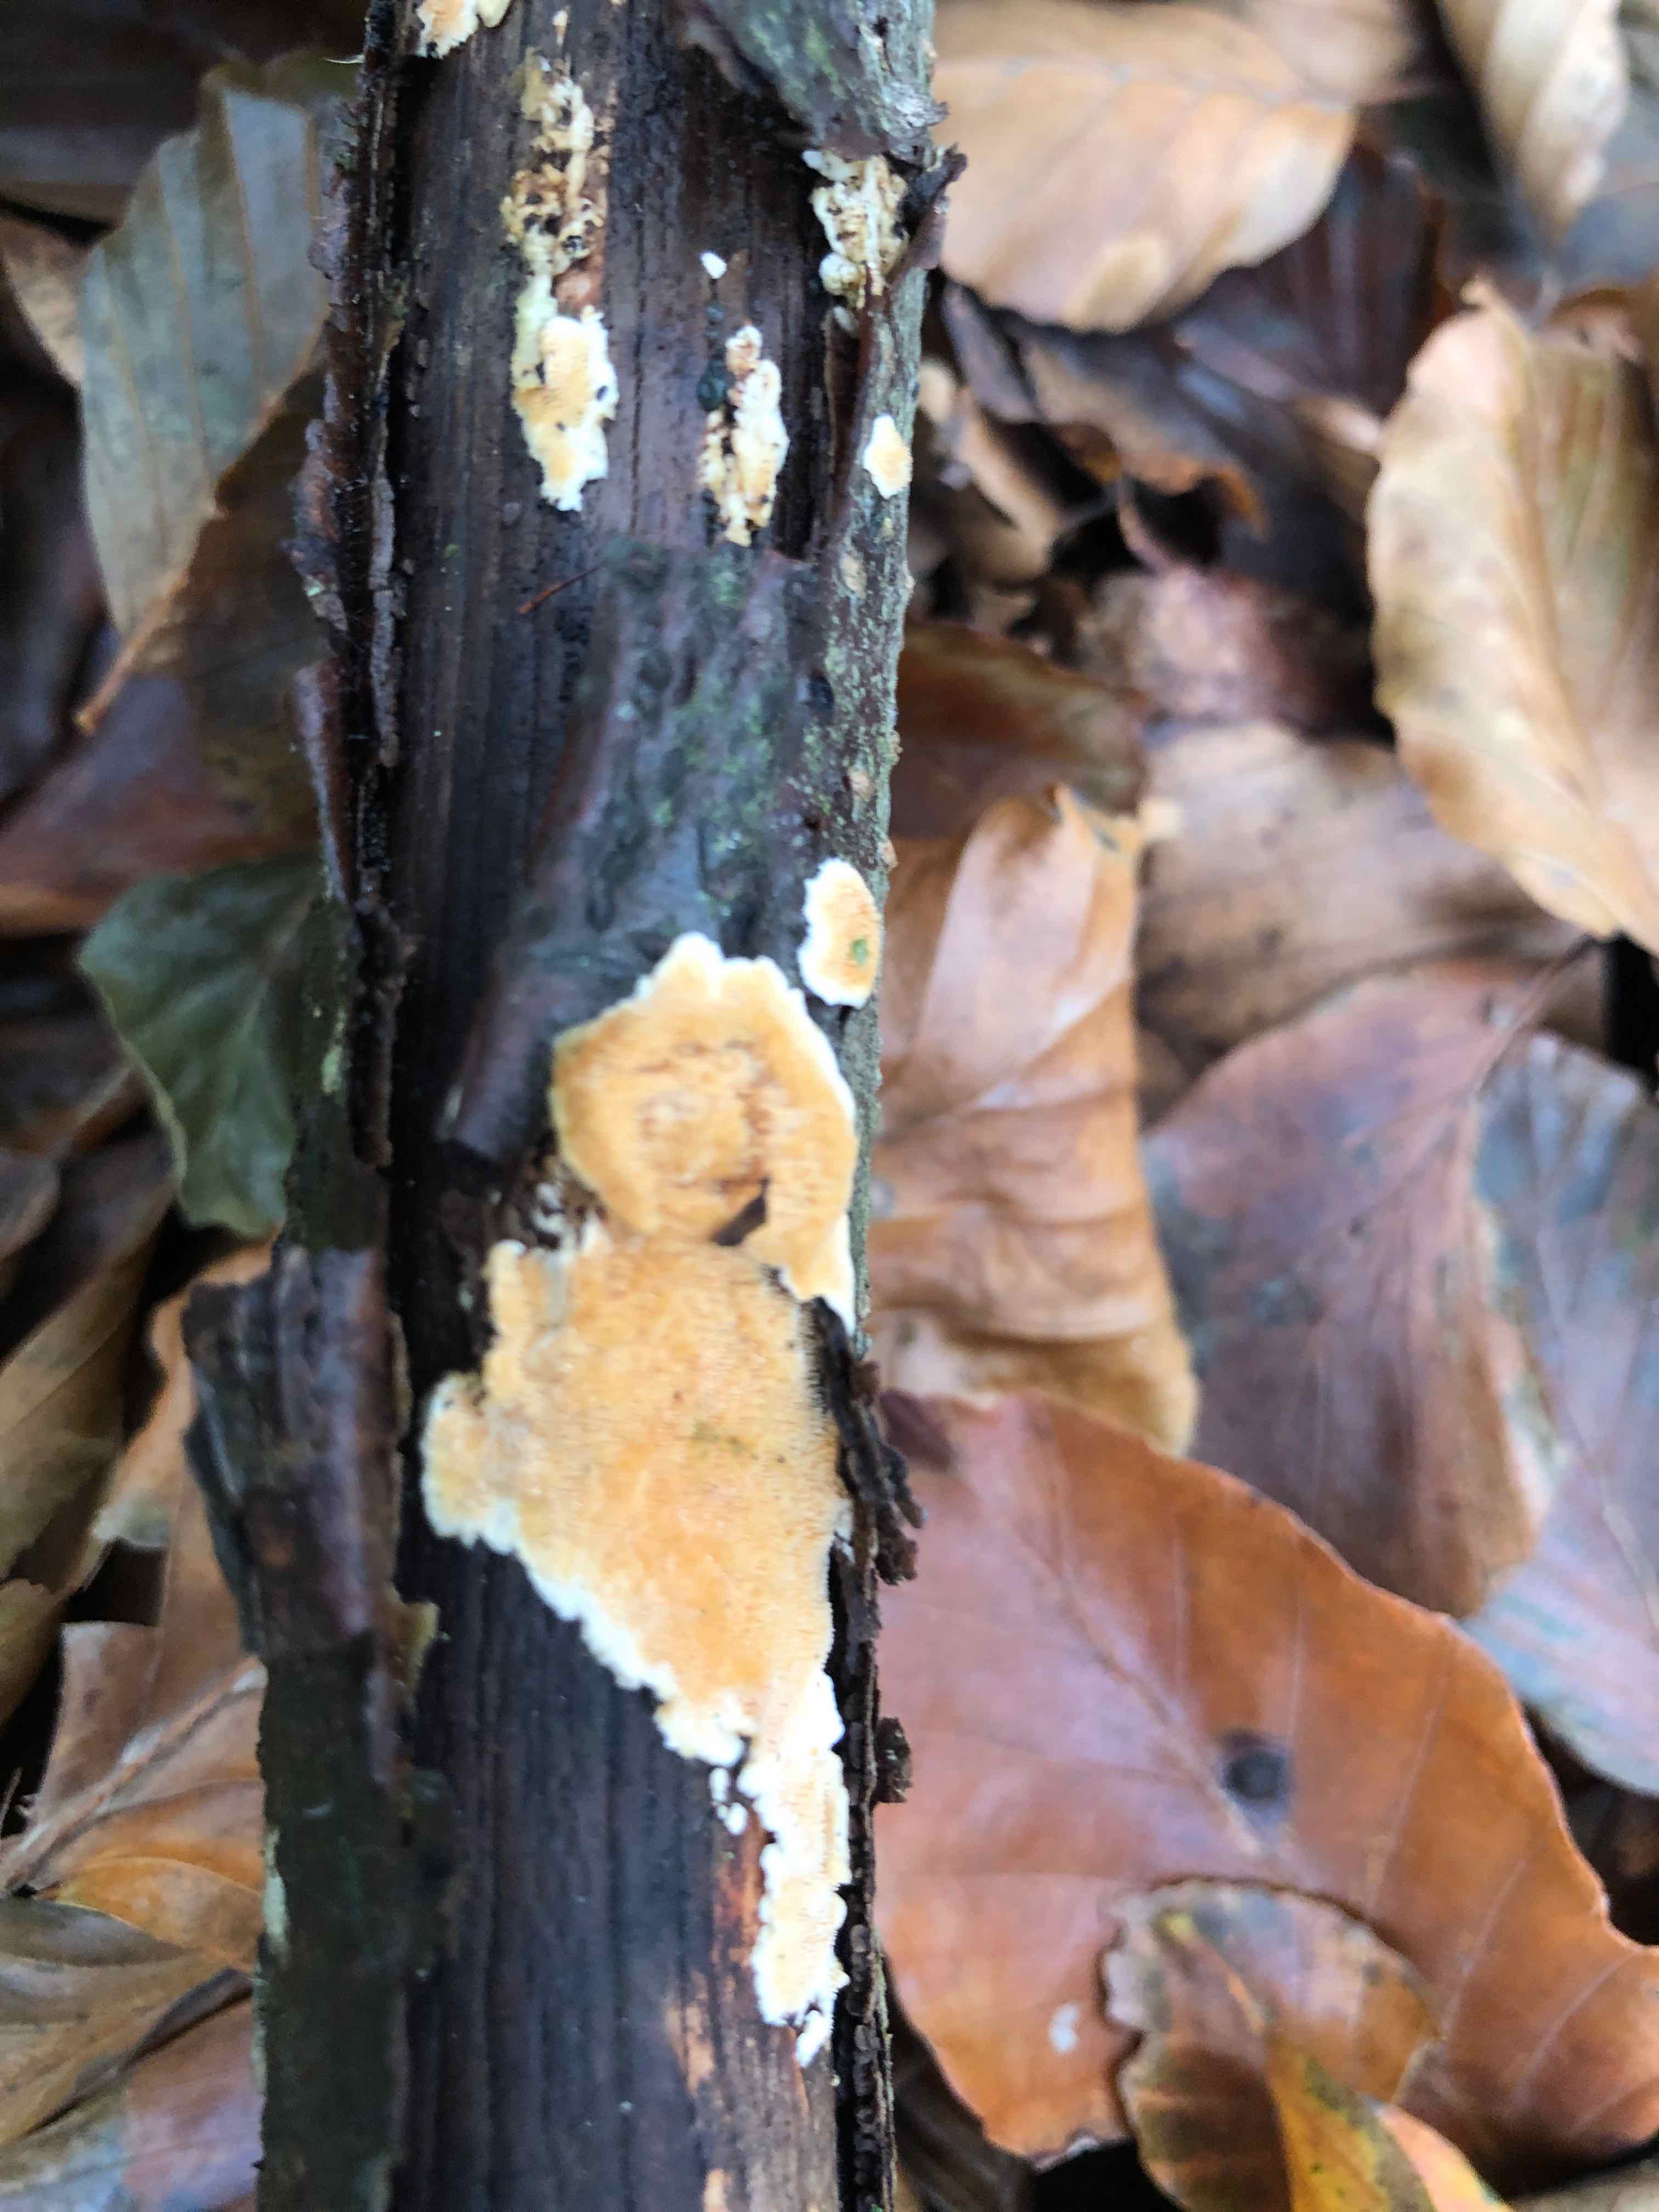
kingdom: Fungi
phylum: Basidiomycota
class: Agaricomycetes
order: Polyporales
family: Steccherinaceae
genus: Steccherinum
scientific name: Steccherinum ochraceum
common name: almindelig skønpig
